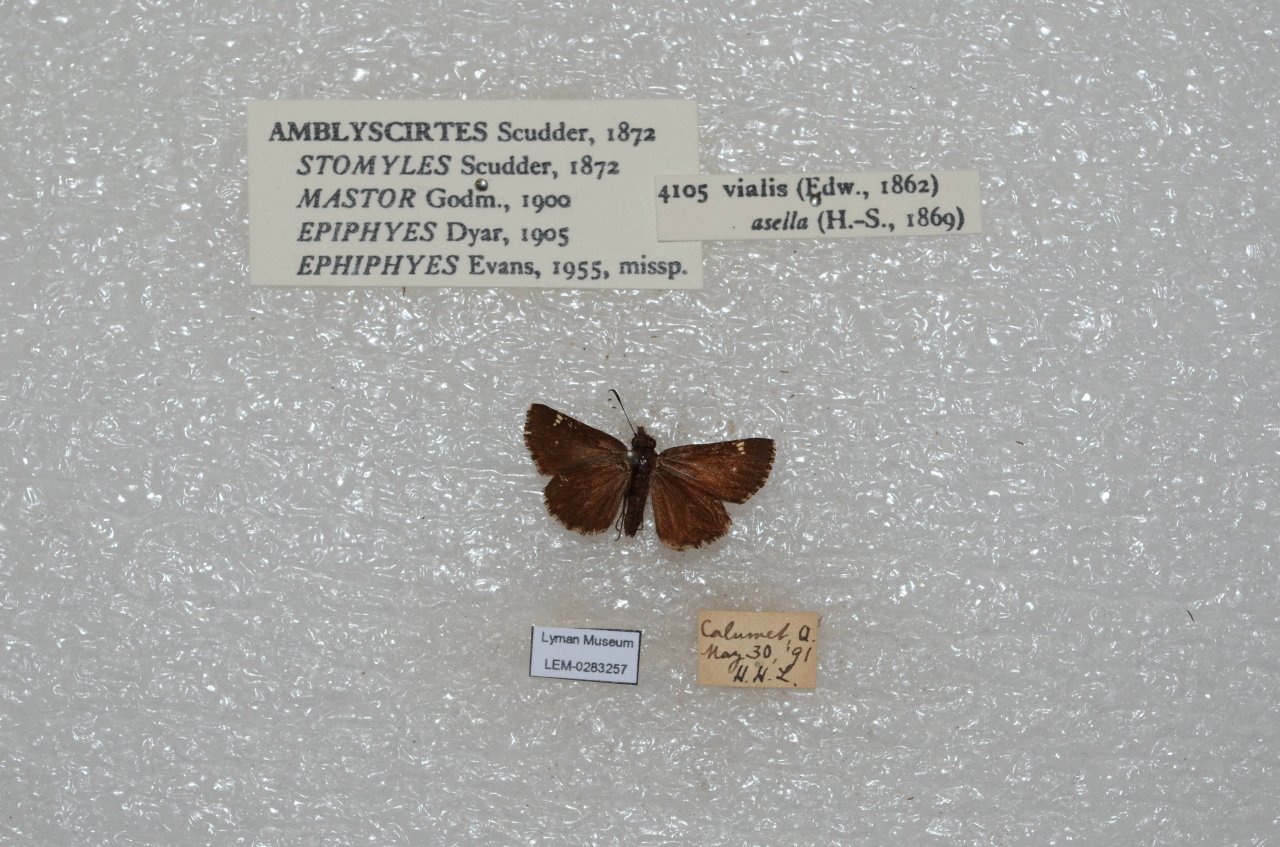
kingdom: Animalia
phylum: Arthropoda
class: Insecta
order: Lepidoptera
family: Hesperiidae
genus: Mastor
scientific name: Mastor vialis
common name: Common Roadside-Skipper
